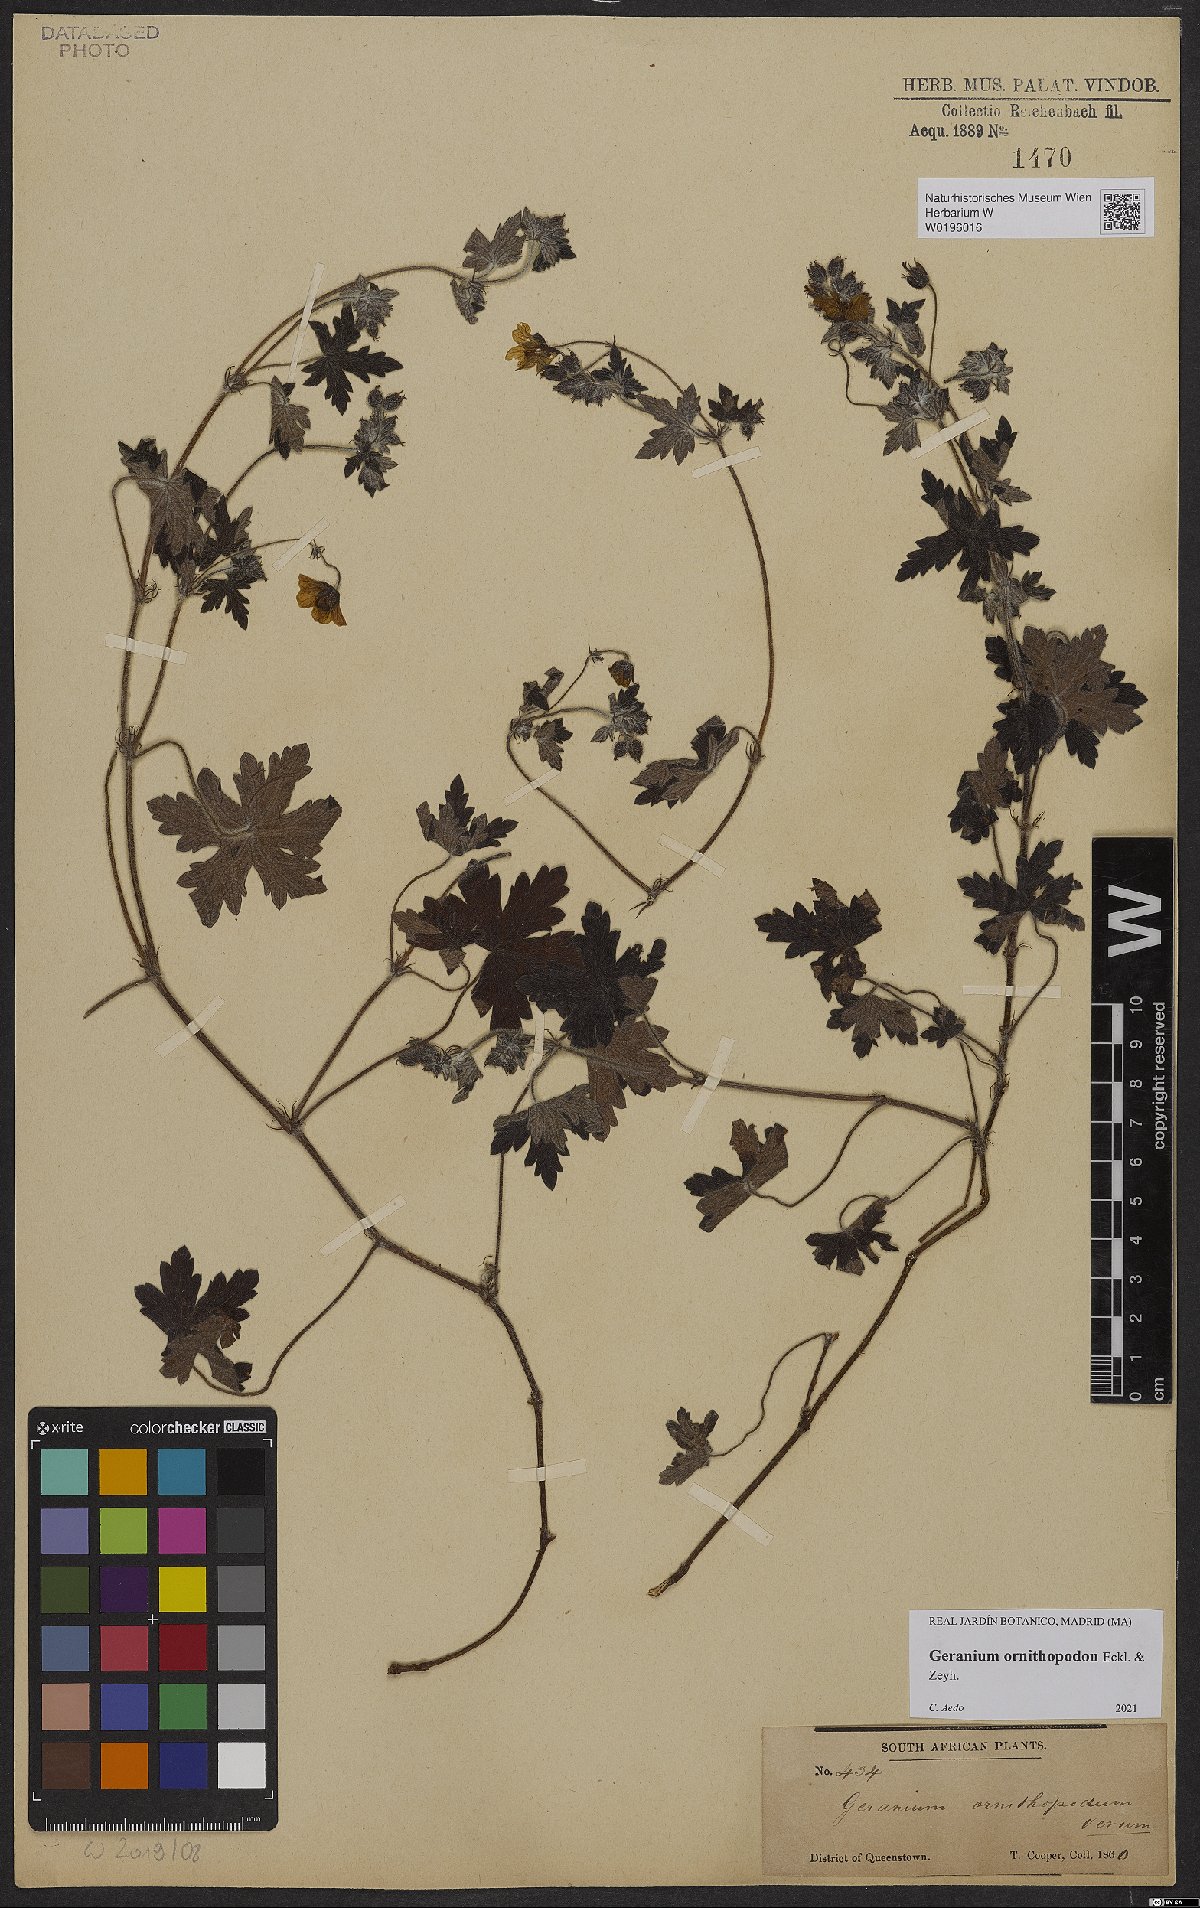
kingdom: Plantae
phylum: Tracheophyta
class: Magnoliopsida
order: Geraniales
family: Geraniaceae
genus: Geranium
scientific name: Geranium ornithopodon
